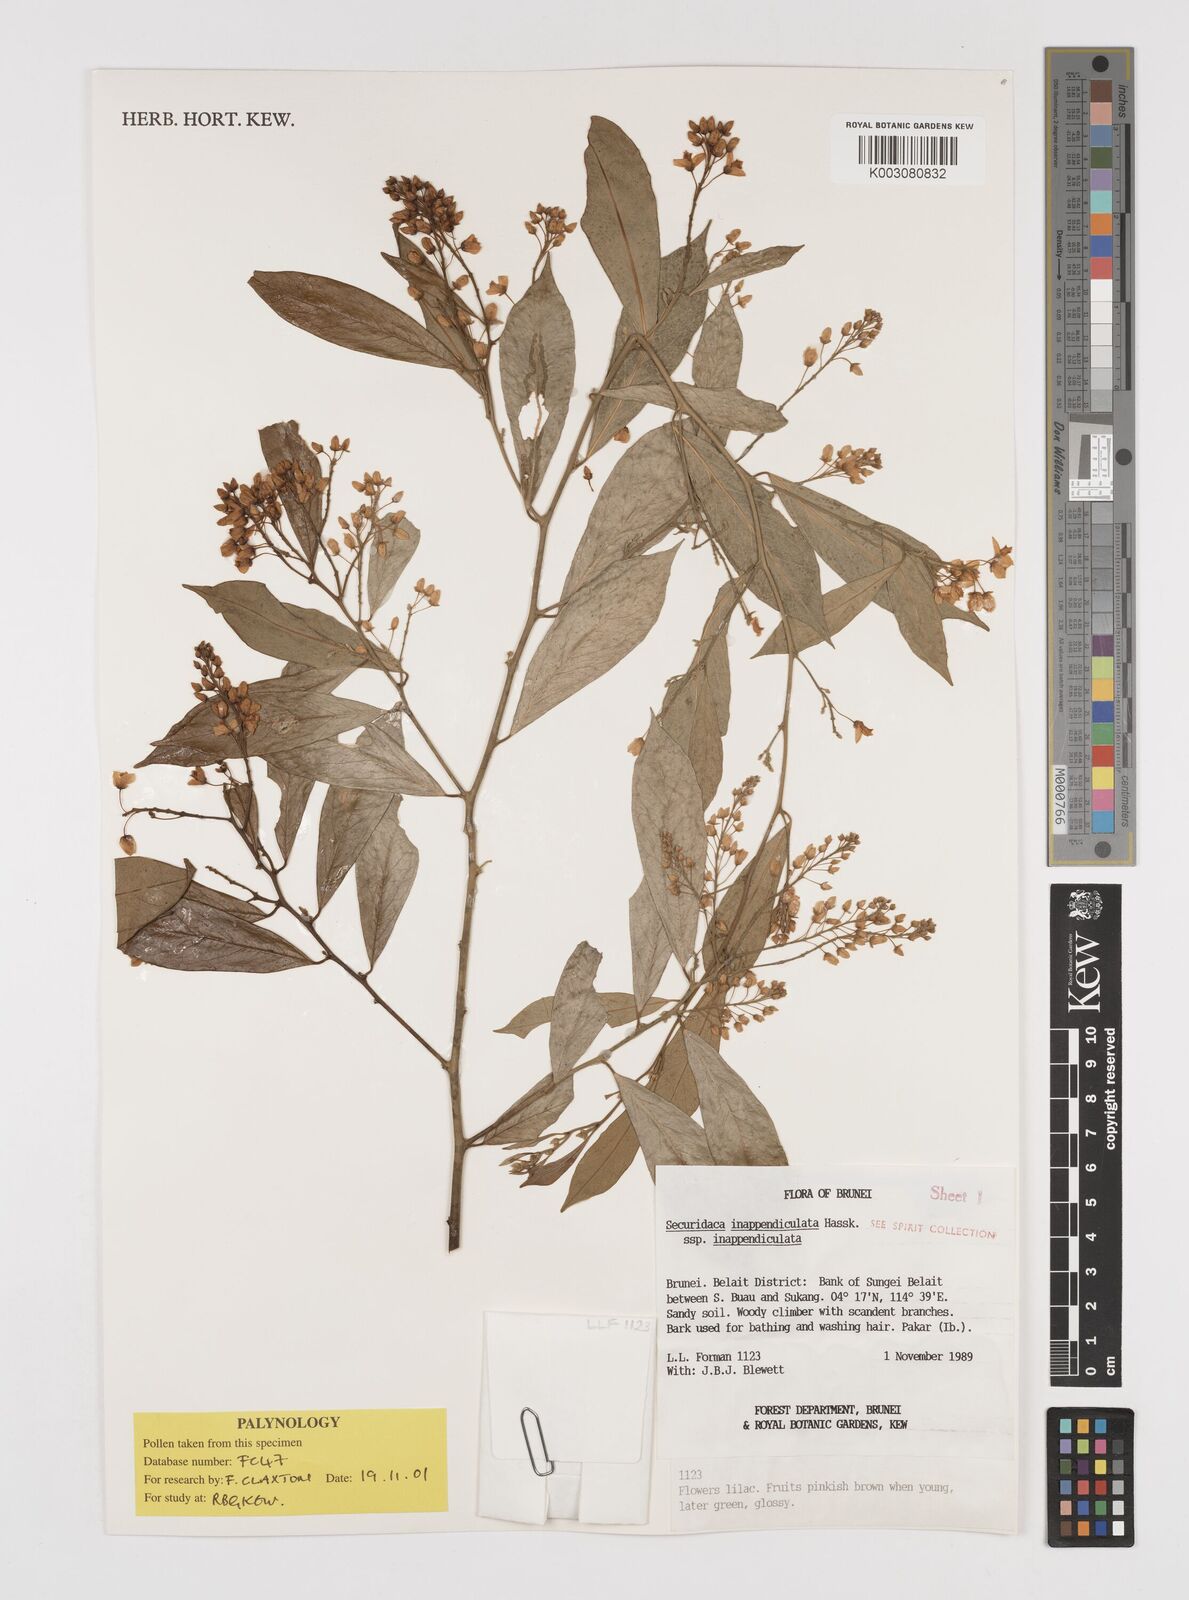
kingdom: Plantae
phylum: Tracheophyta
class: Magnoliopsida
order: Fabales
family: Polygalaceae
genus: Securidaca
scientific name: Securidaca inappendiculata
